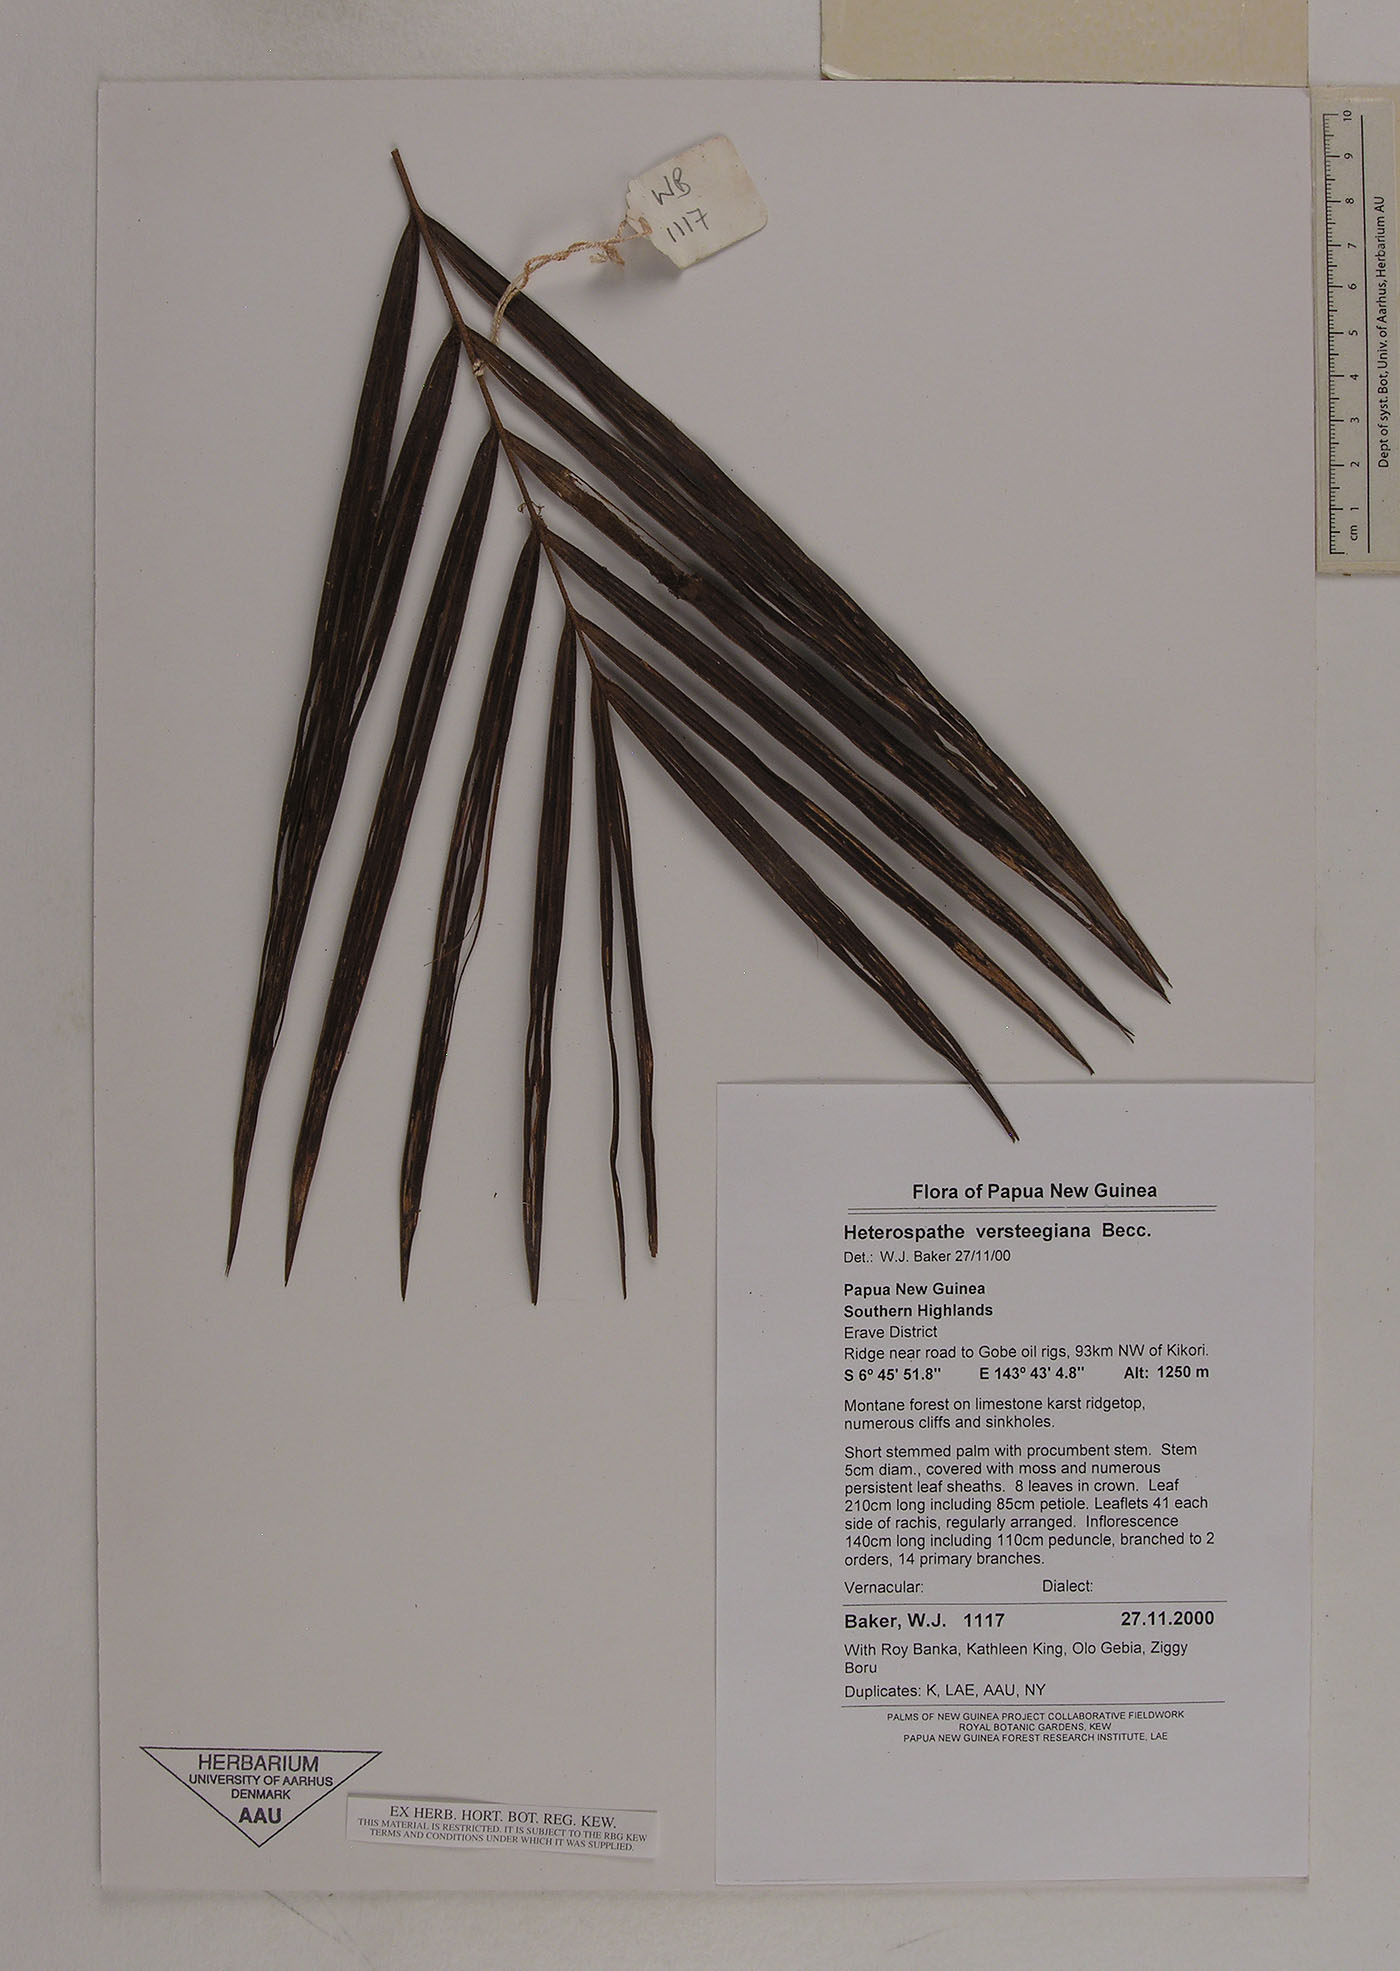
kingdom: Plantae
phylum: Tracheophyta
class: Liliopsida
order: Arecales
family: Arecaceae
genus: Heterospathe
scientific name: Heterospathe elegans
